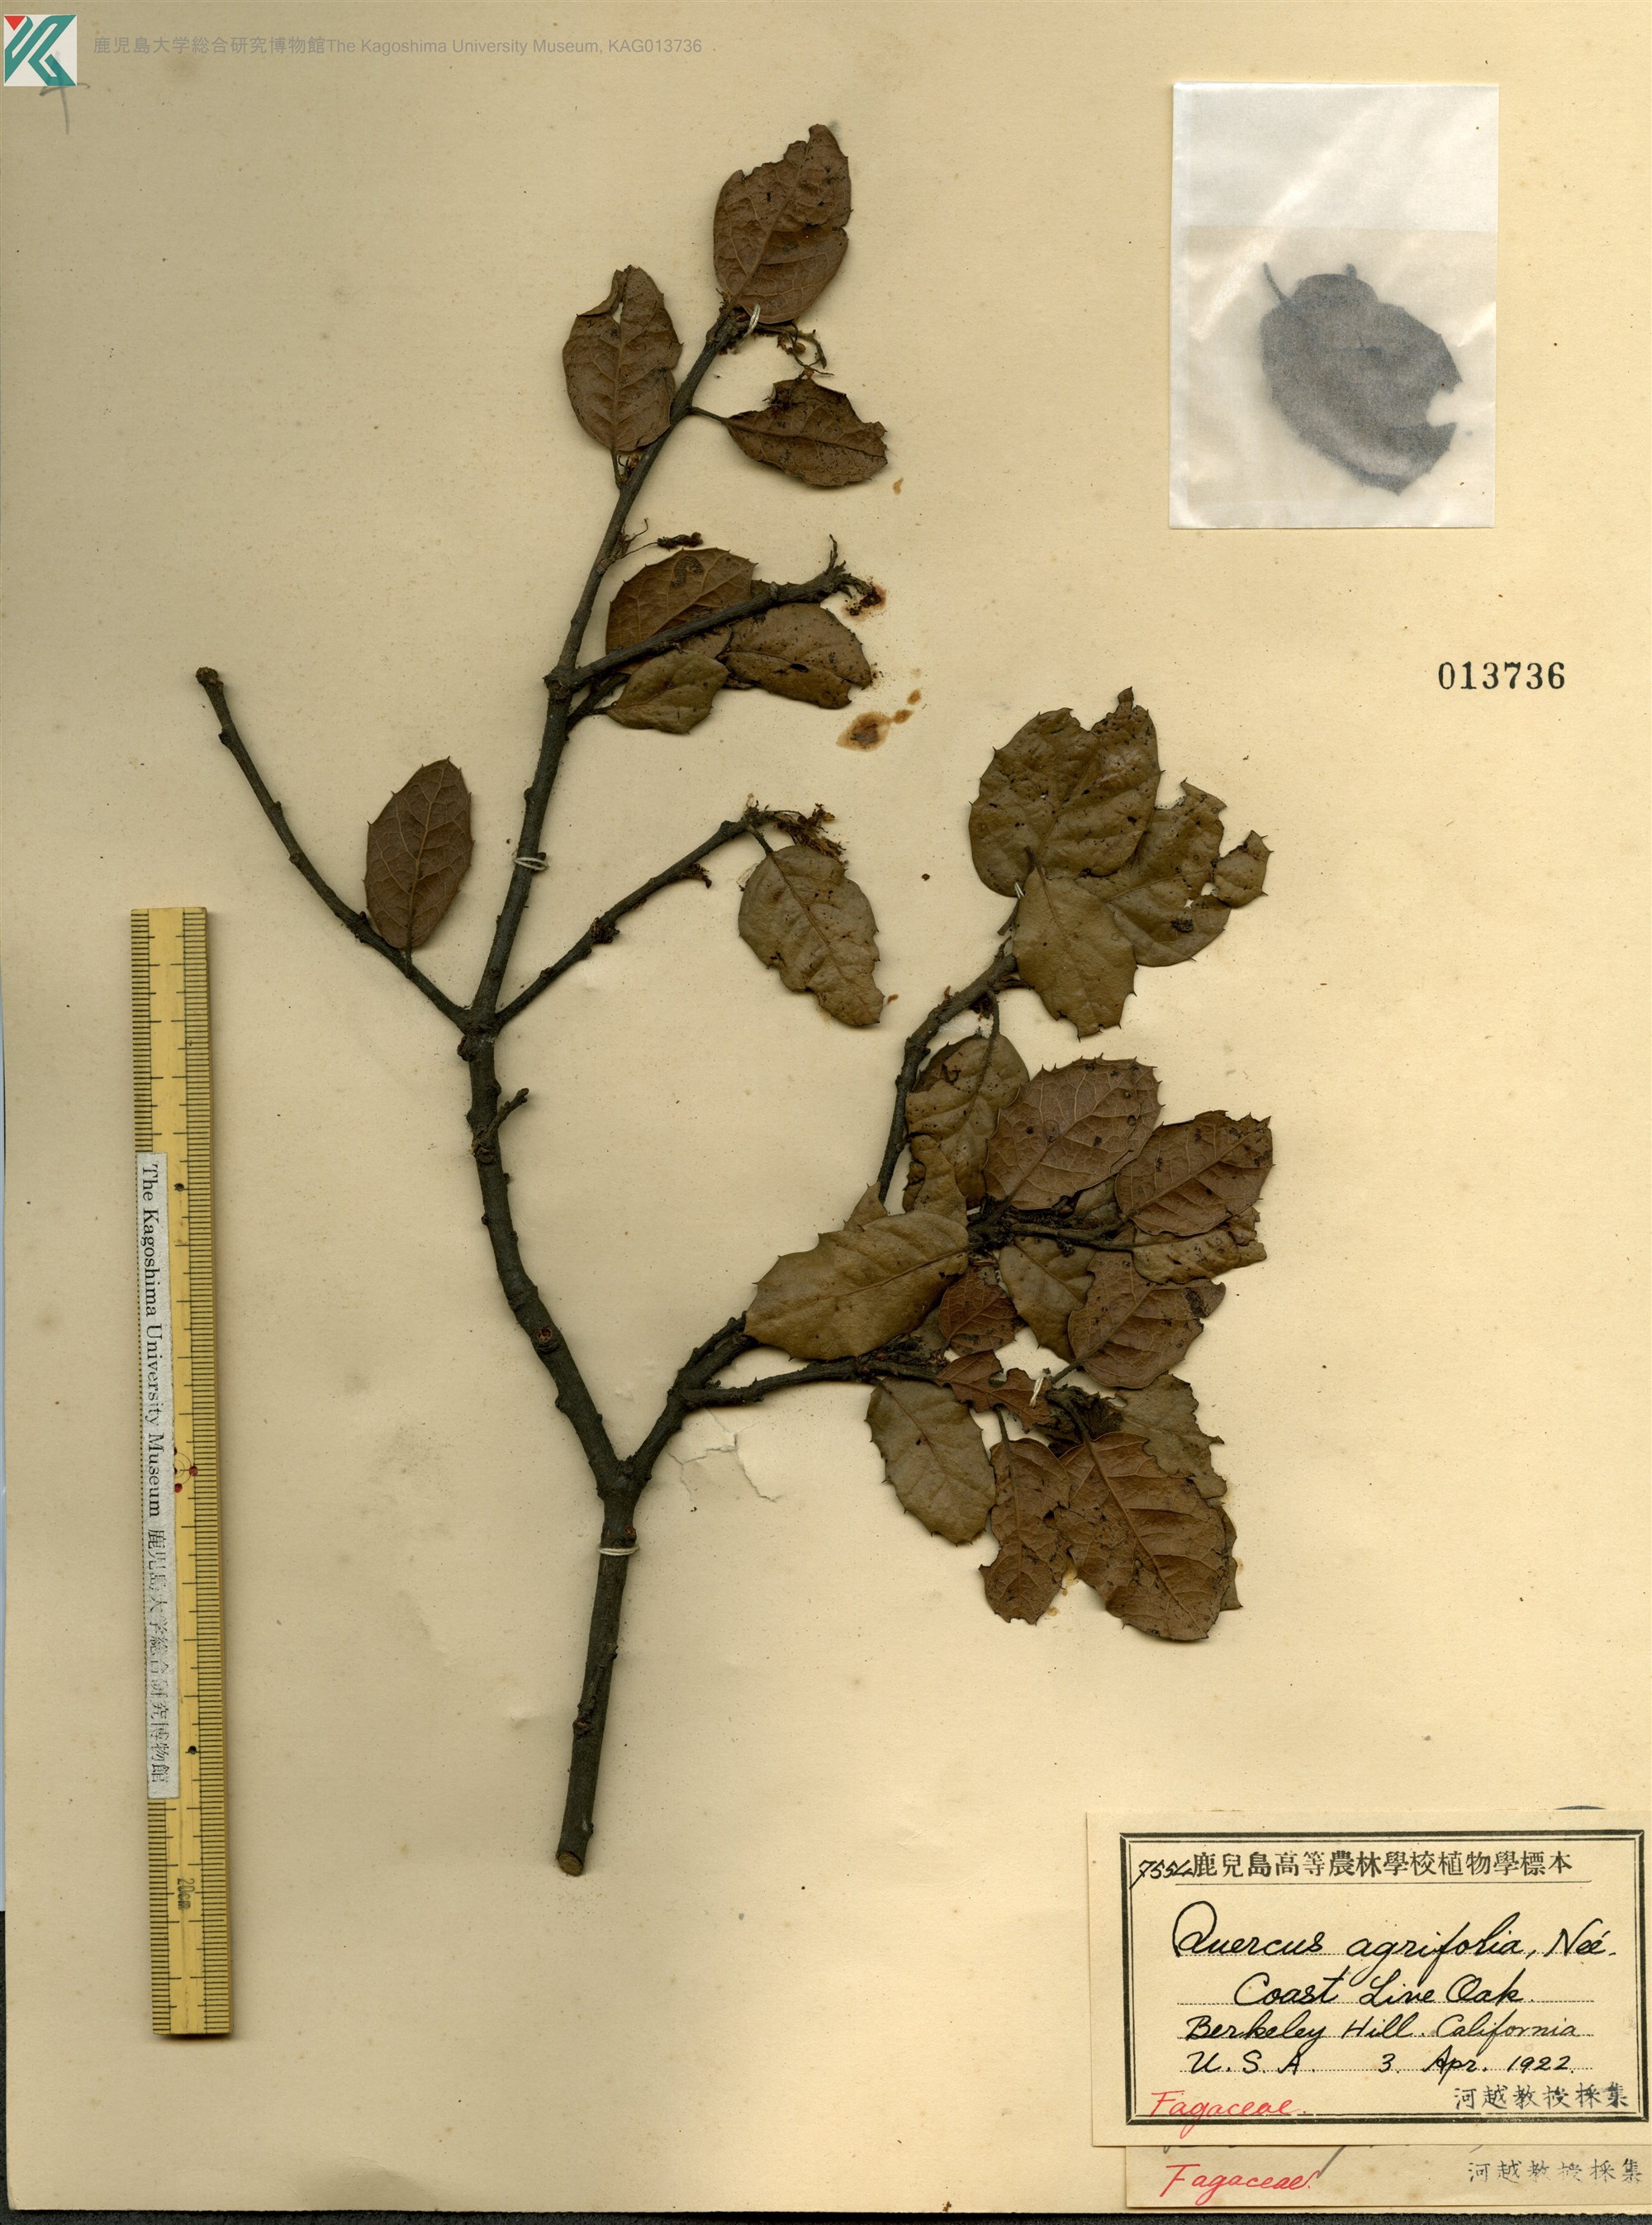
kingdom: Plantae
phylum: Tracheophyta
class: Magnoliopsida
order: Fagales
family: Fagaceae
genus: Quercus
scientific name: Quercus agrifolia
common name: California live oak
